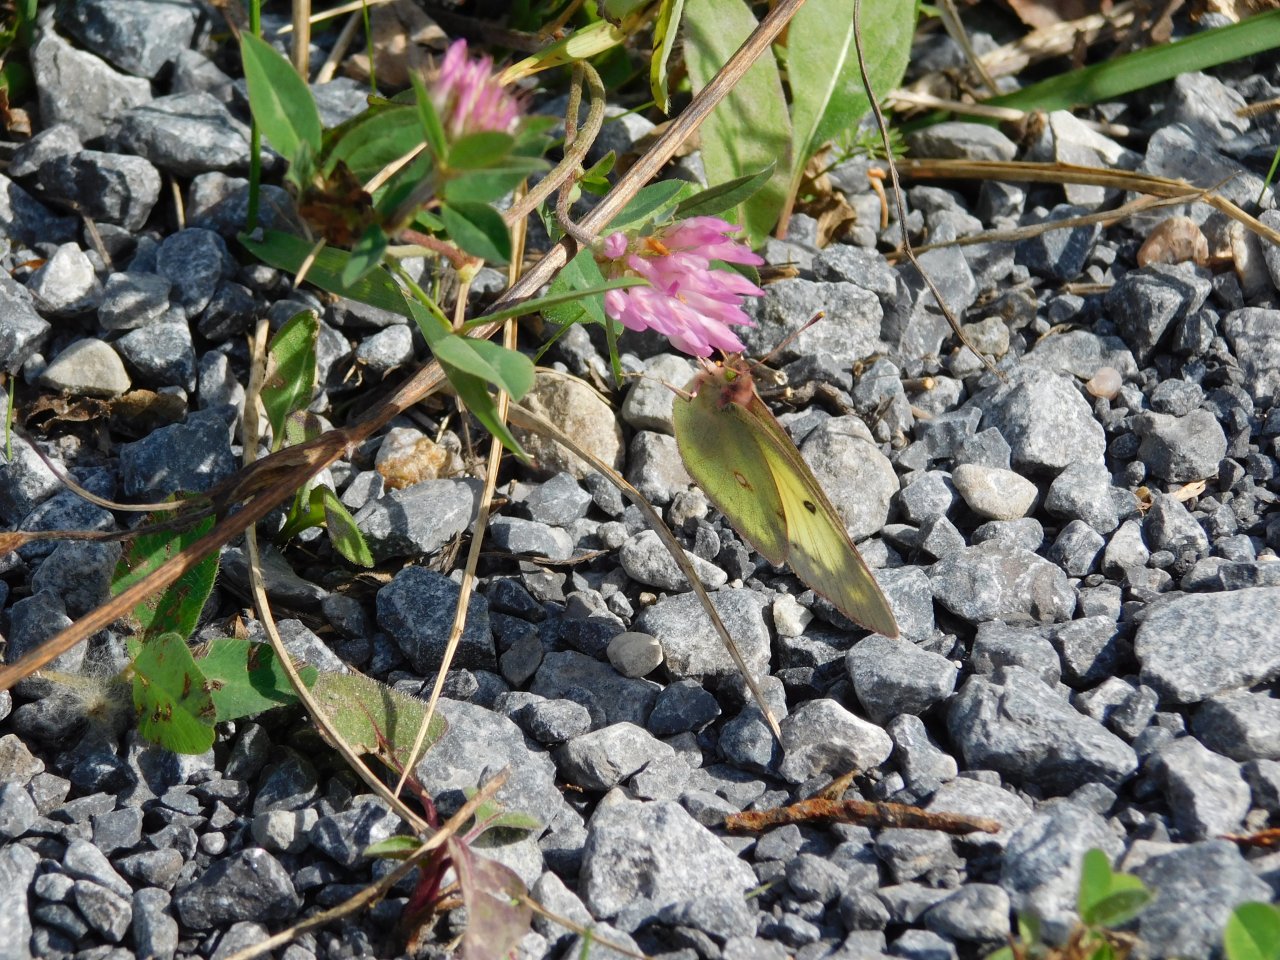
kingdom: Animalia
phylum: Arthropoda
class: Insecta
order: Lepidoptera
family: Pieridae
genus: Colias
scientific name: Colias philodice
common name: Clouded Sulphur
